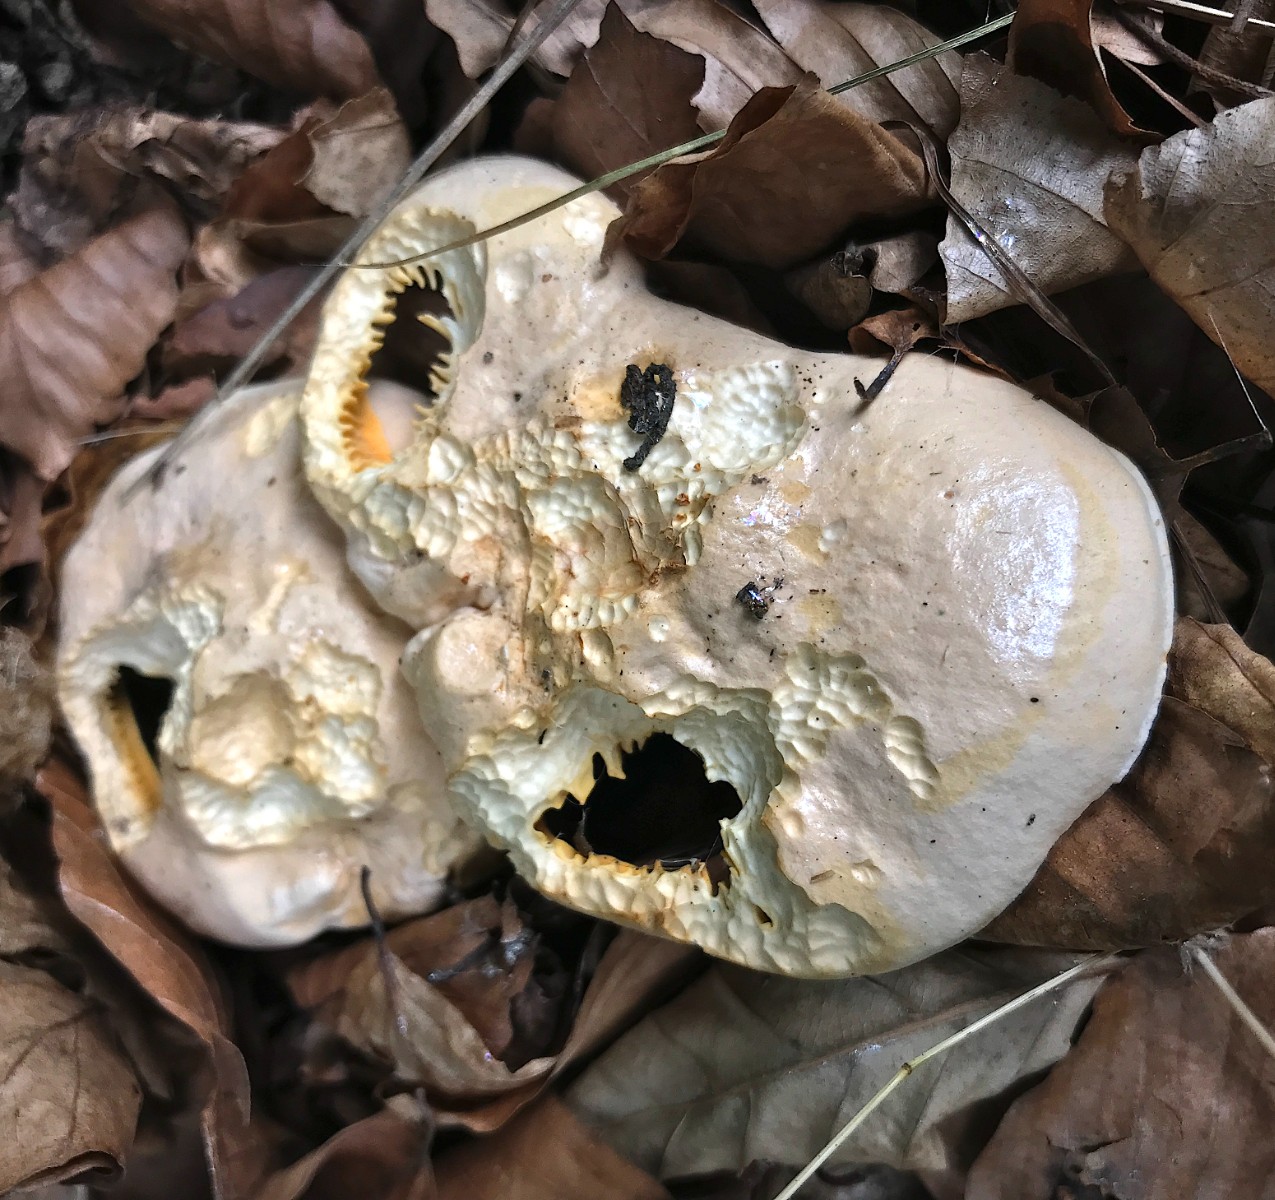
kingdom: Fungi
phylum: Basidiomycota
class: Agaricomycetes
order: Cantharellales
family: Hydnaceae
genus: Cantharellus
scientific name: Cantharellus pallens
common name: bleg kantarel
